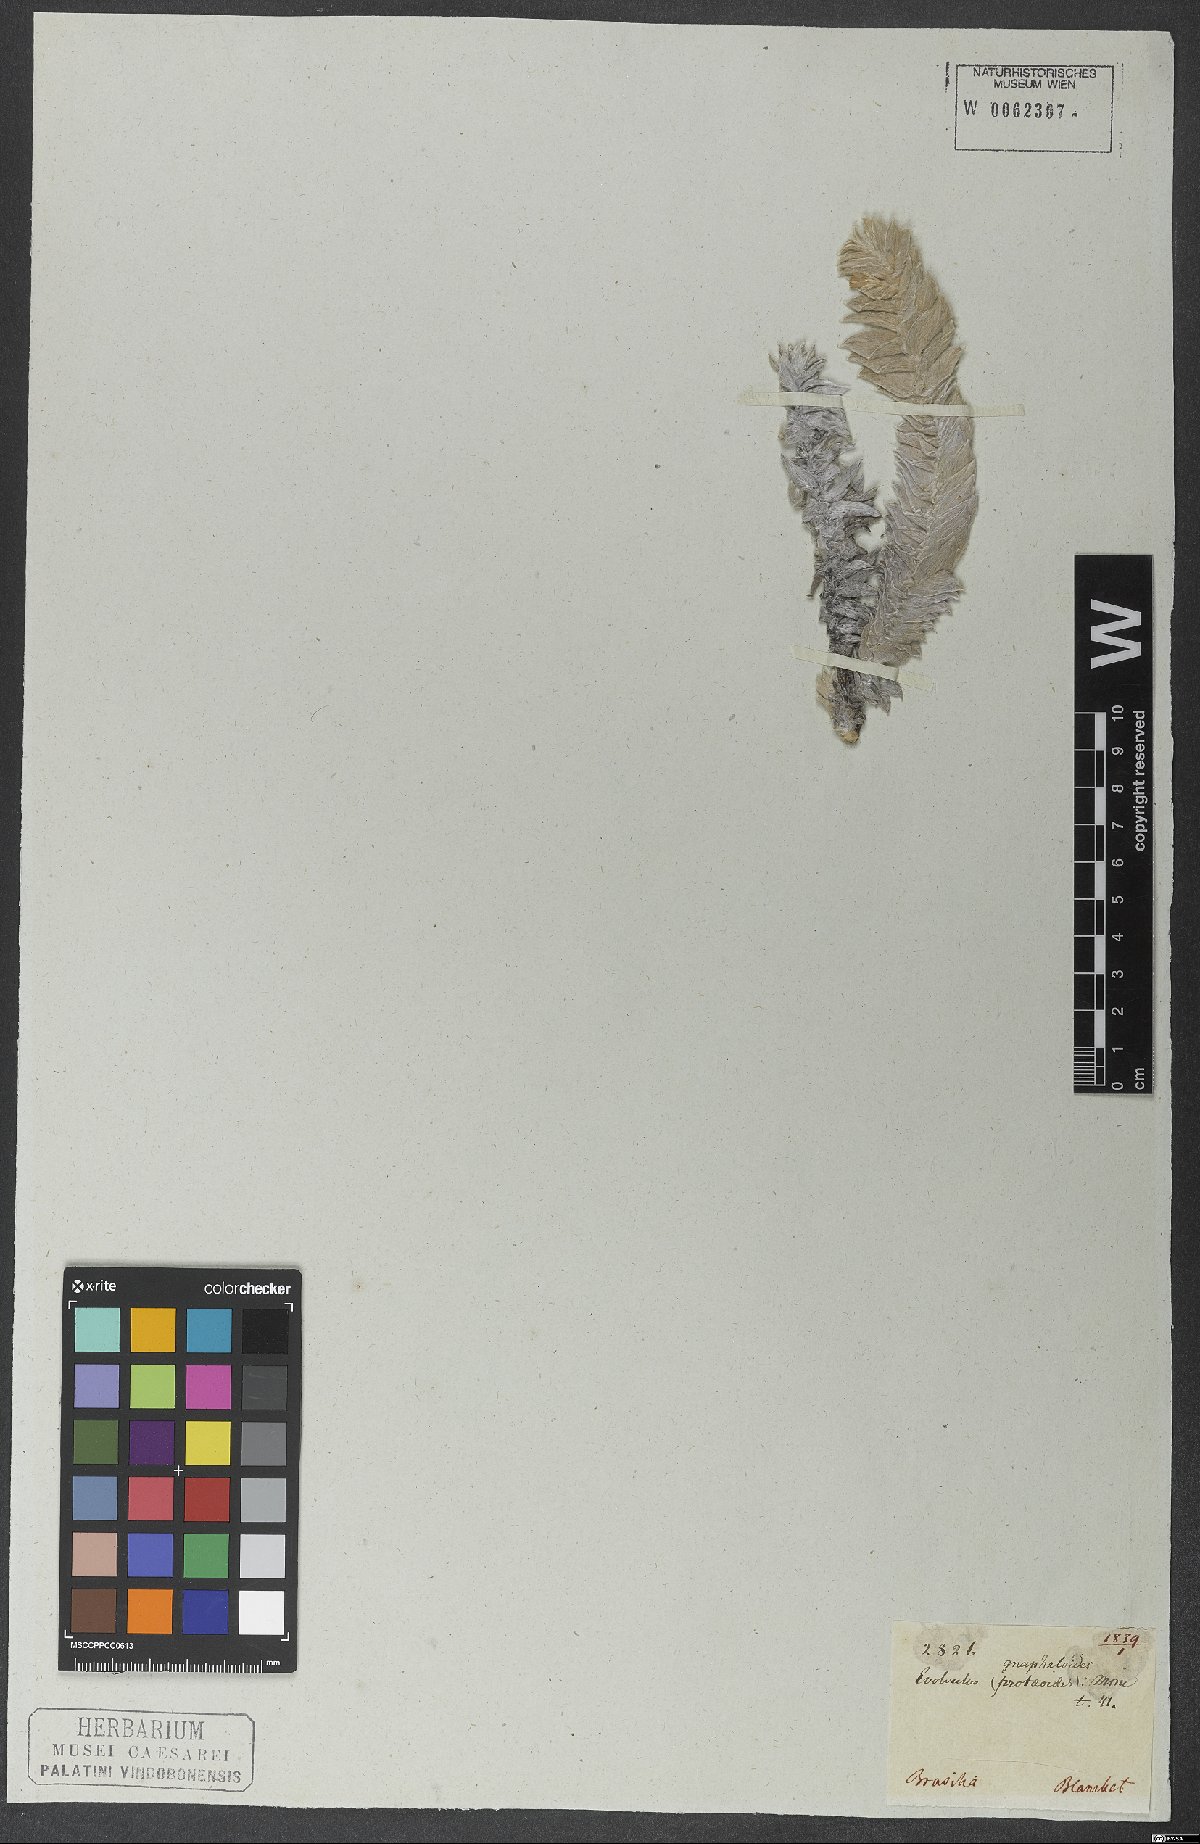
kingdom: Plantae
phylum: Tracheophyta
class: Magnoliopsida
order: Solanales
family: Convolvulaceae
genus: Evolvulus
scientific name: Evolvulus gnaphalioides
